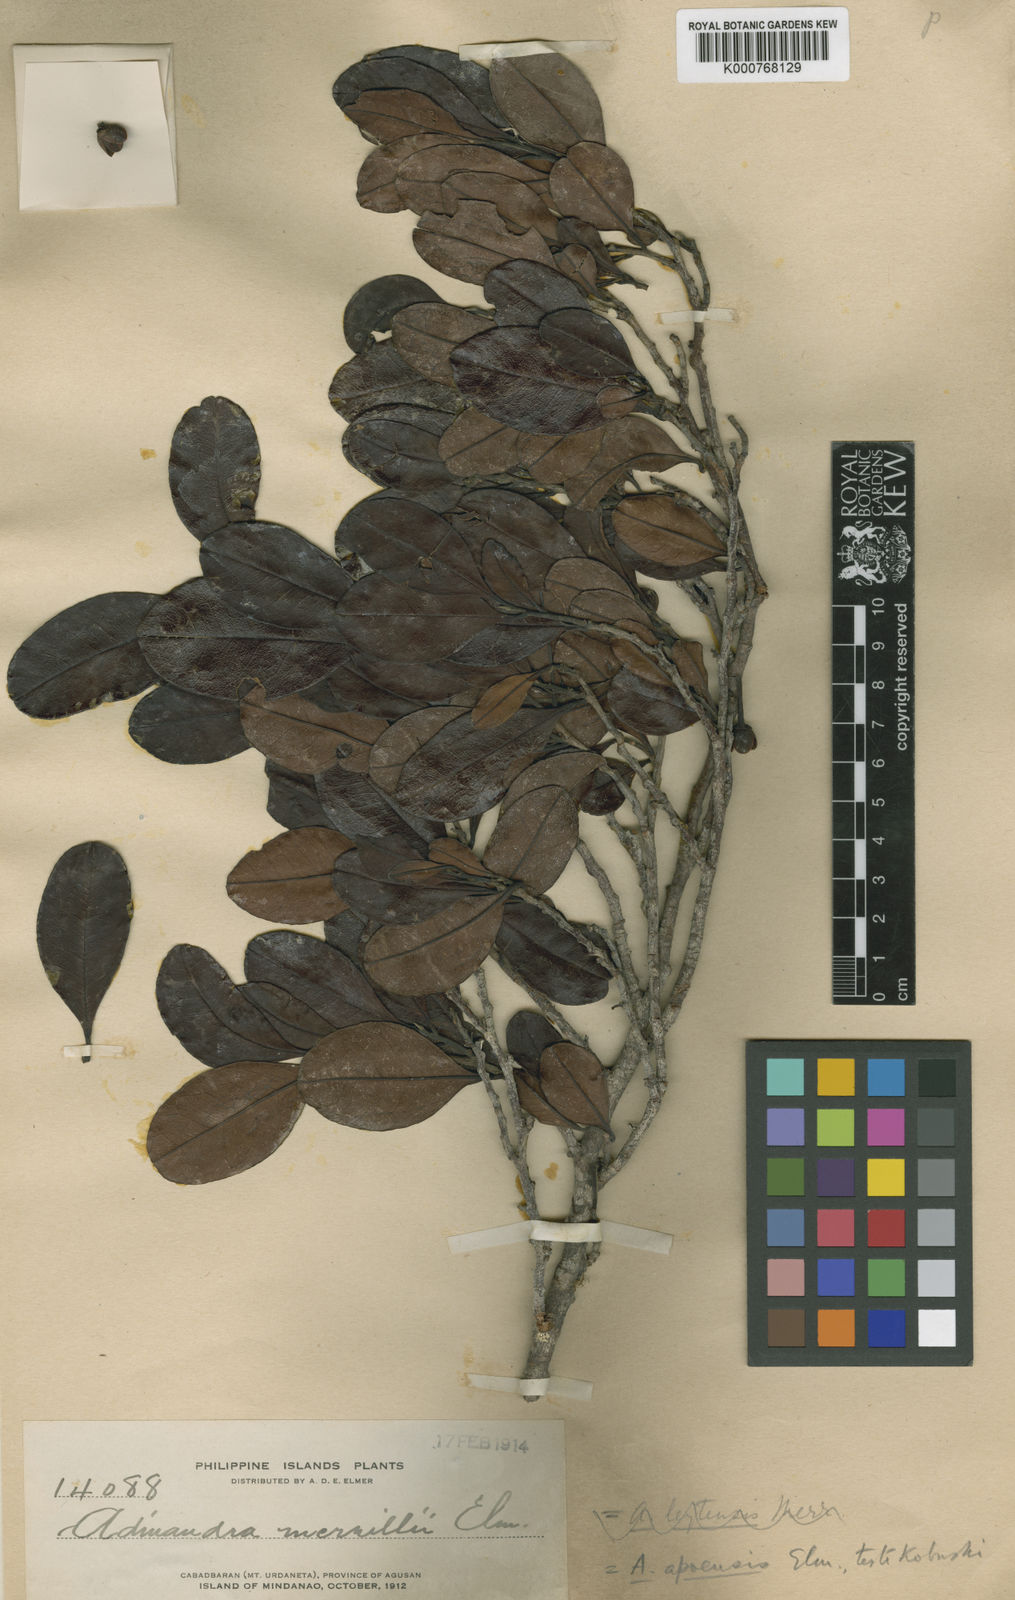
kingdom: Plantae
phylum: Tracheophyta
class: Magnoliopsida
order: Ericales
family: Pentaphylacaceae
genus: Adinandra
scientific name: Adinandra apoensis
